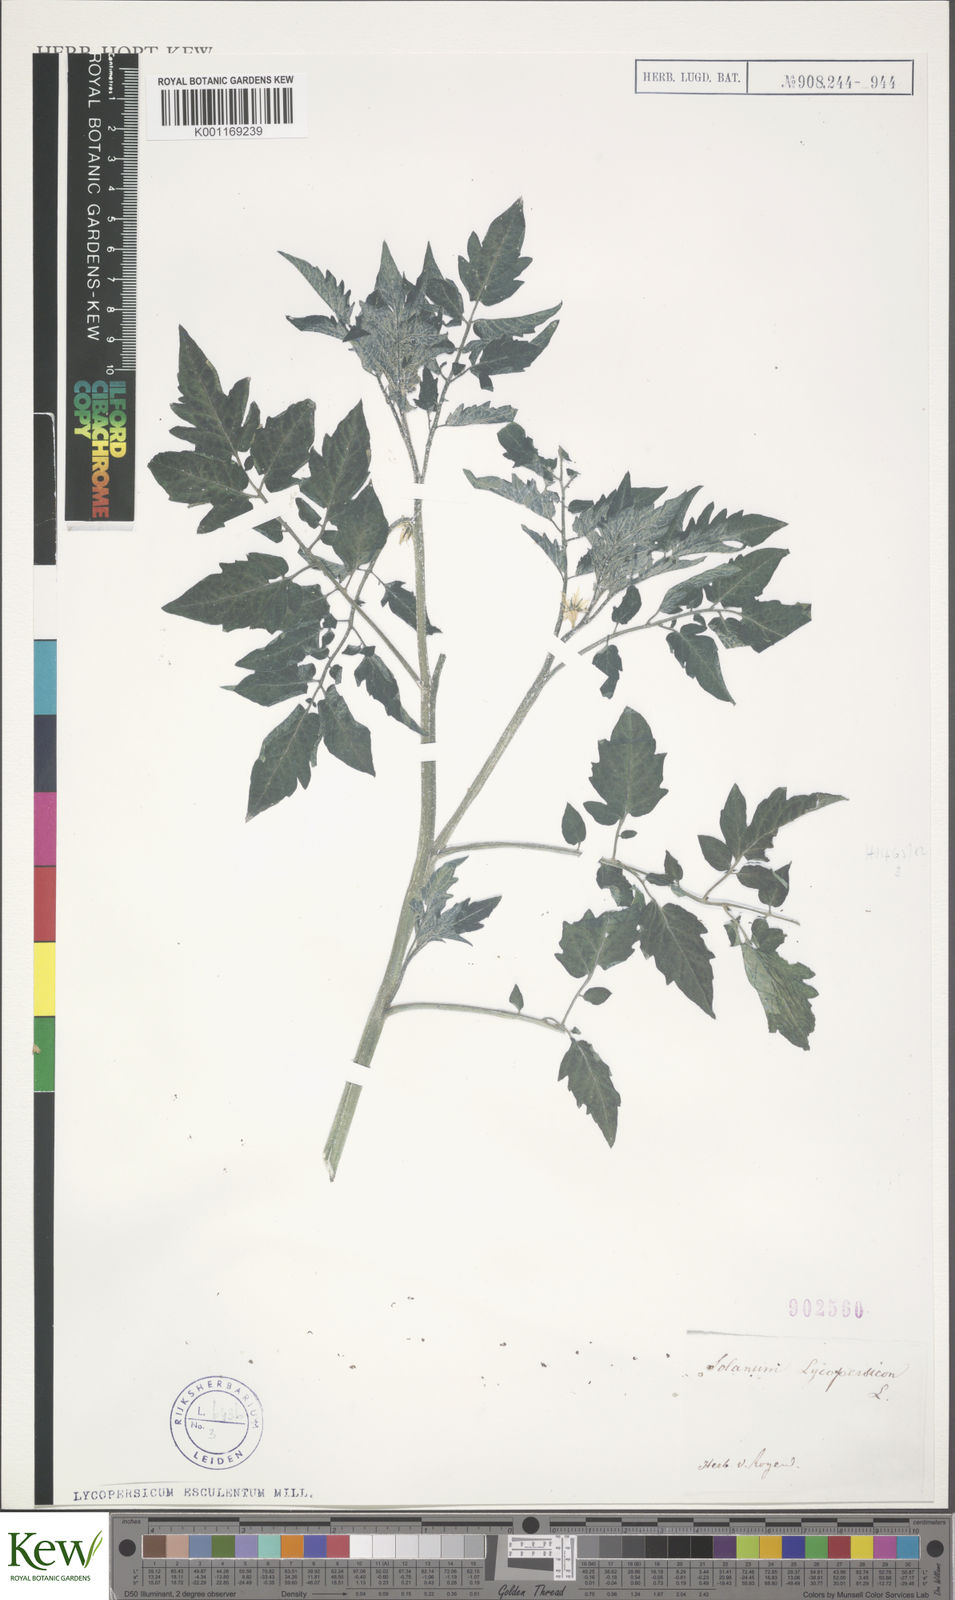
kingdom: Plantae
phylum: Tracheophyta
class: Magnoliopsida
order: Solanales
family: Solanaceae
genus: Solanum
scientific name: Solanum lycopersicum
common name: Garden tomato
